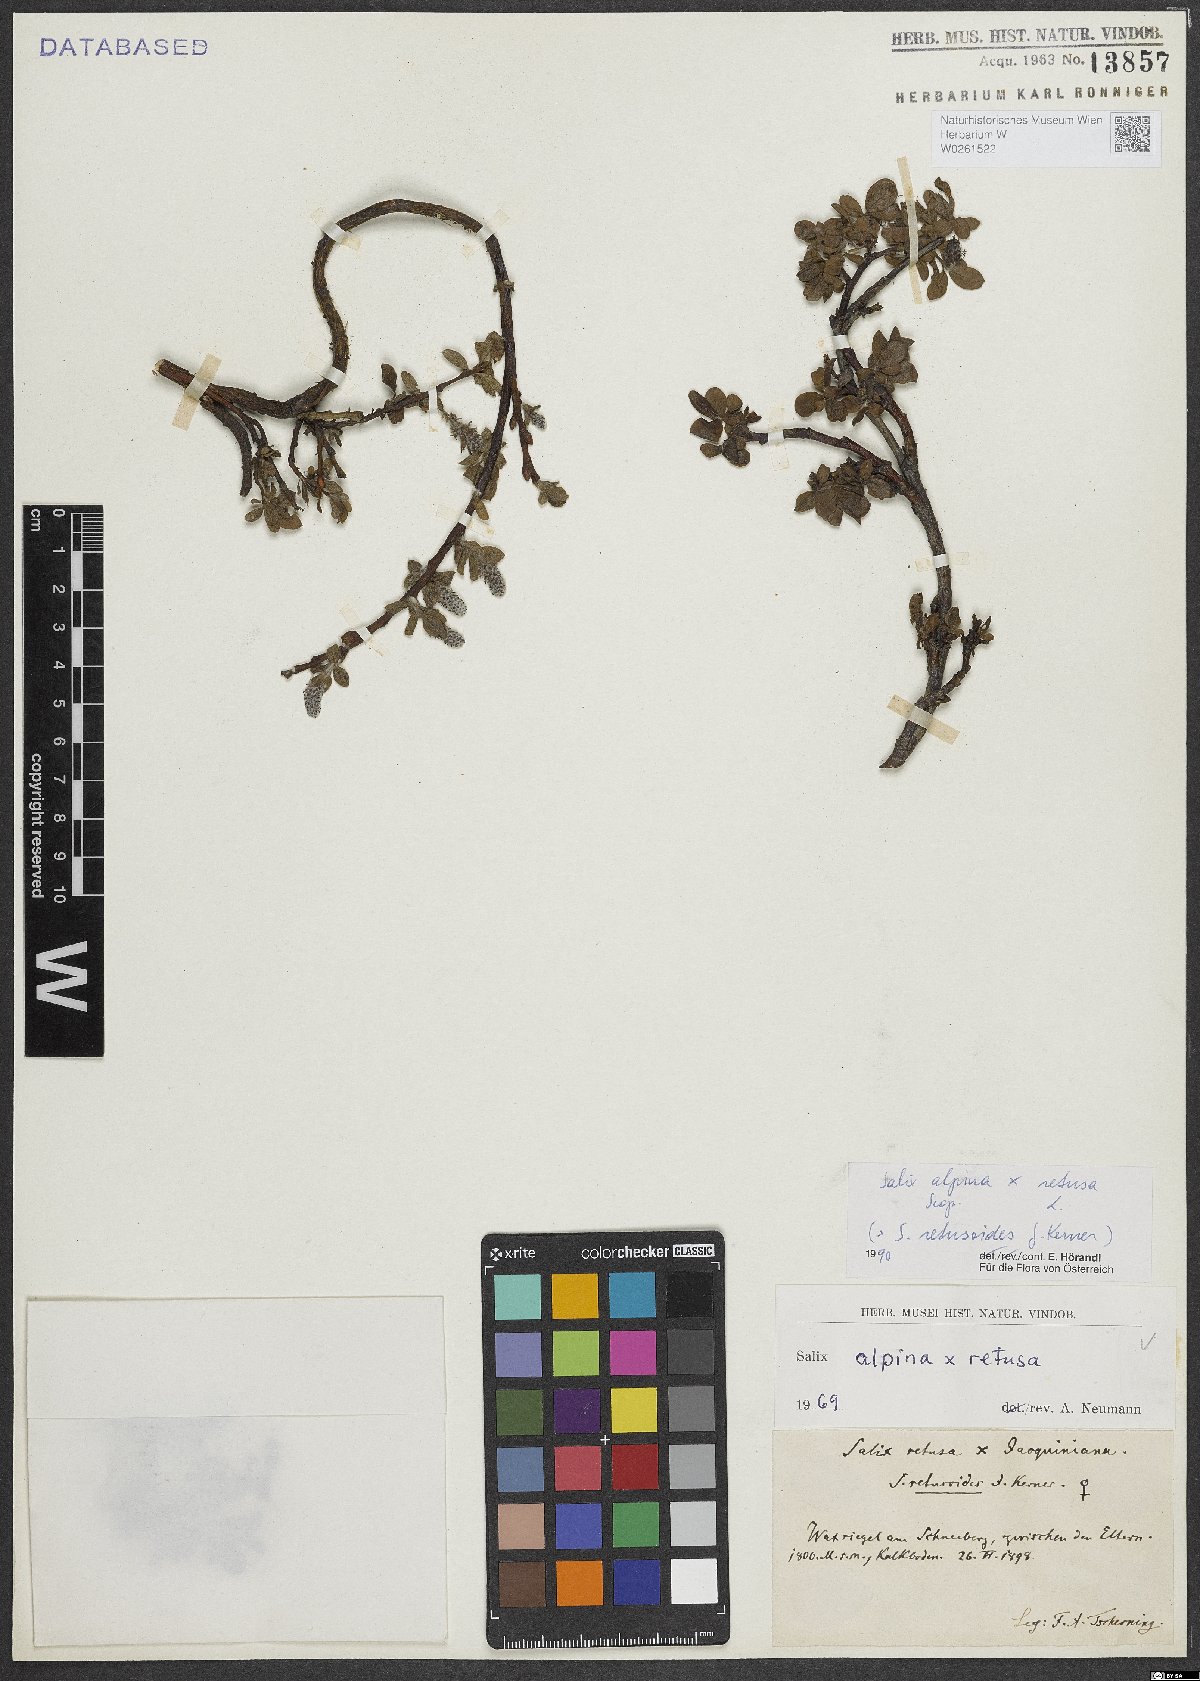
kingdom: Plantae
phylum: Tracheophyta
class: Magnoliopsida
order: Malpighiales
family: Salicaceae
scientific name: Salicaceae
